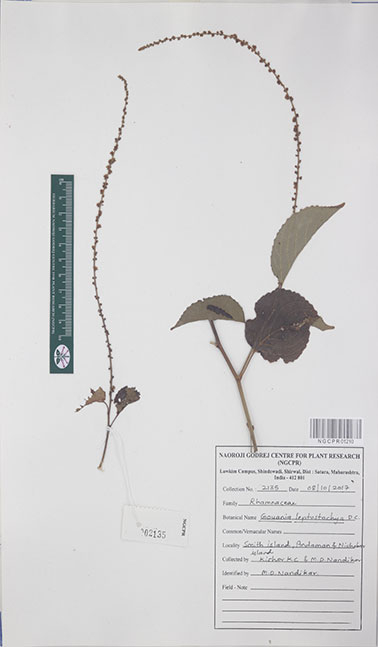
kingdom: Plantae
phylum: Tracheophyta
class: Magnoliopsida
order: Rosales
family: Rhamnaceae
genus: Gouania
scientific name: Gouania leptostachya
